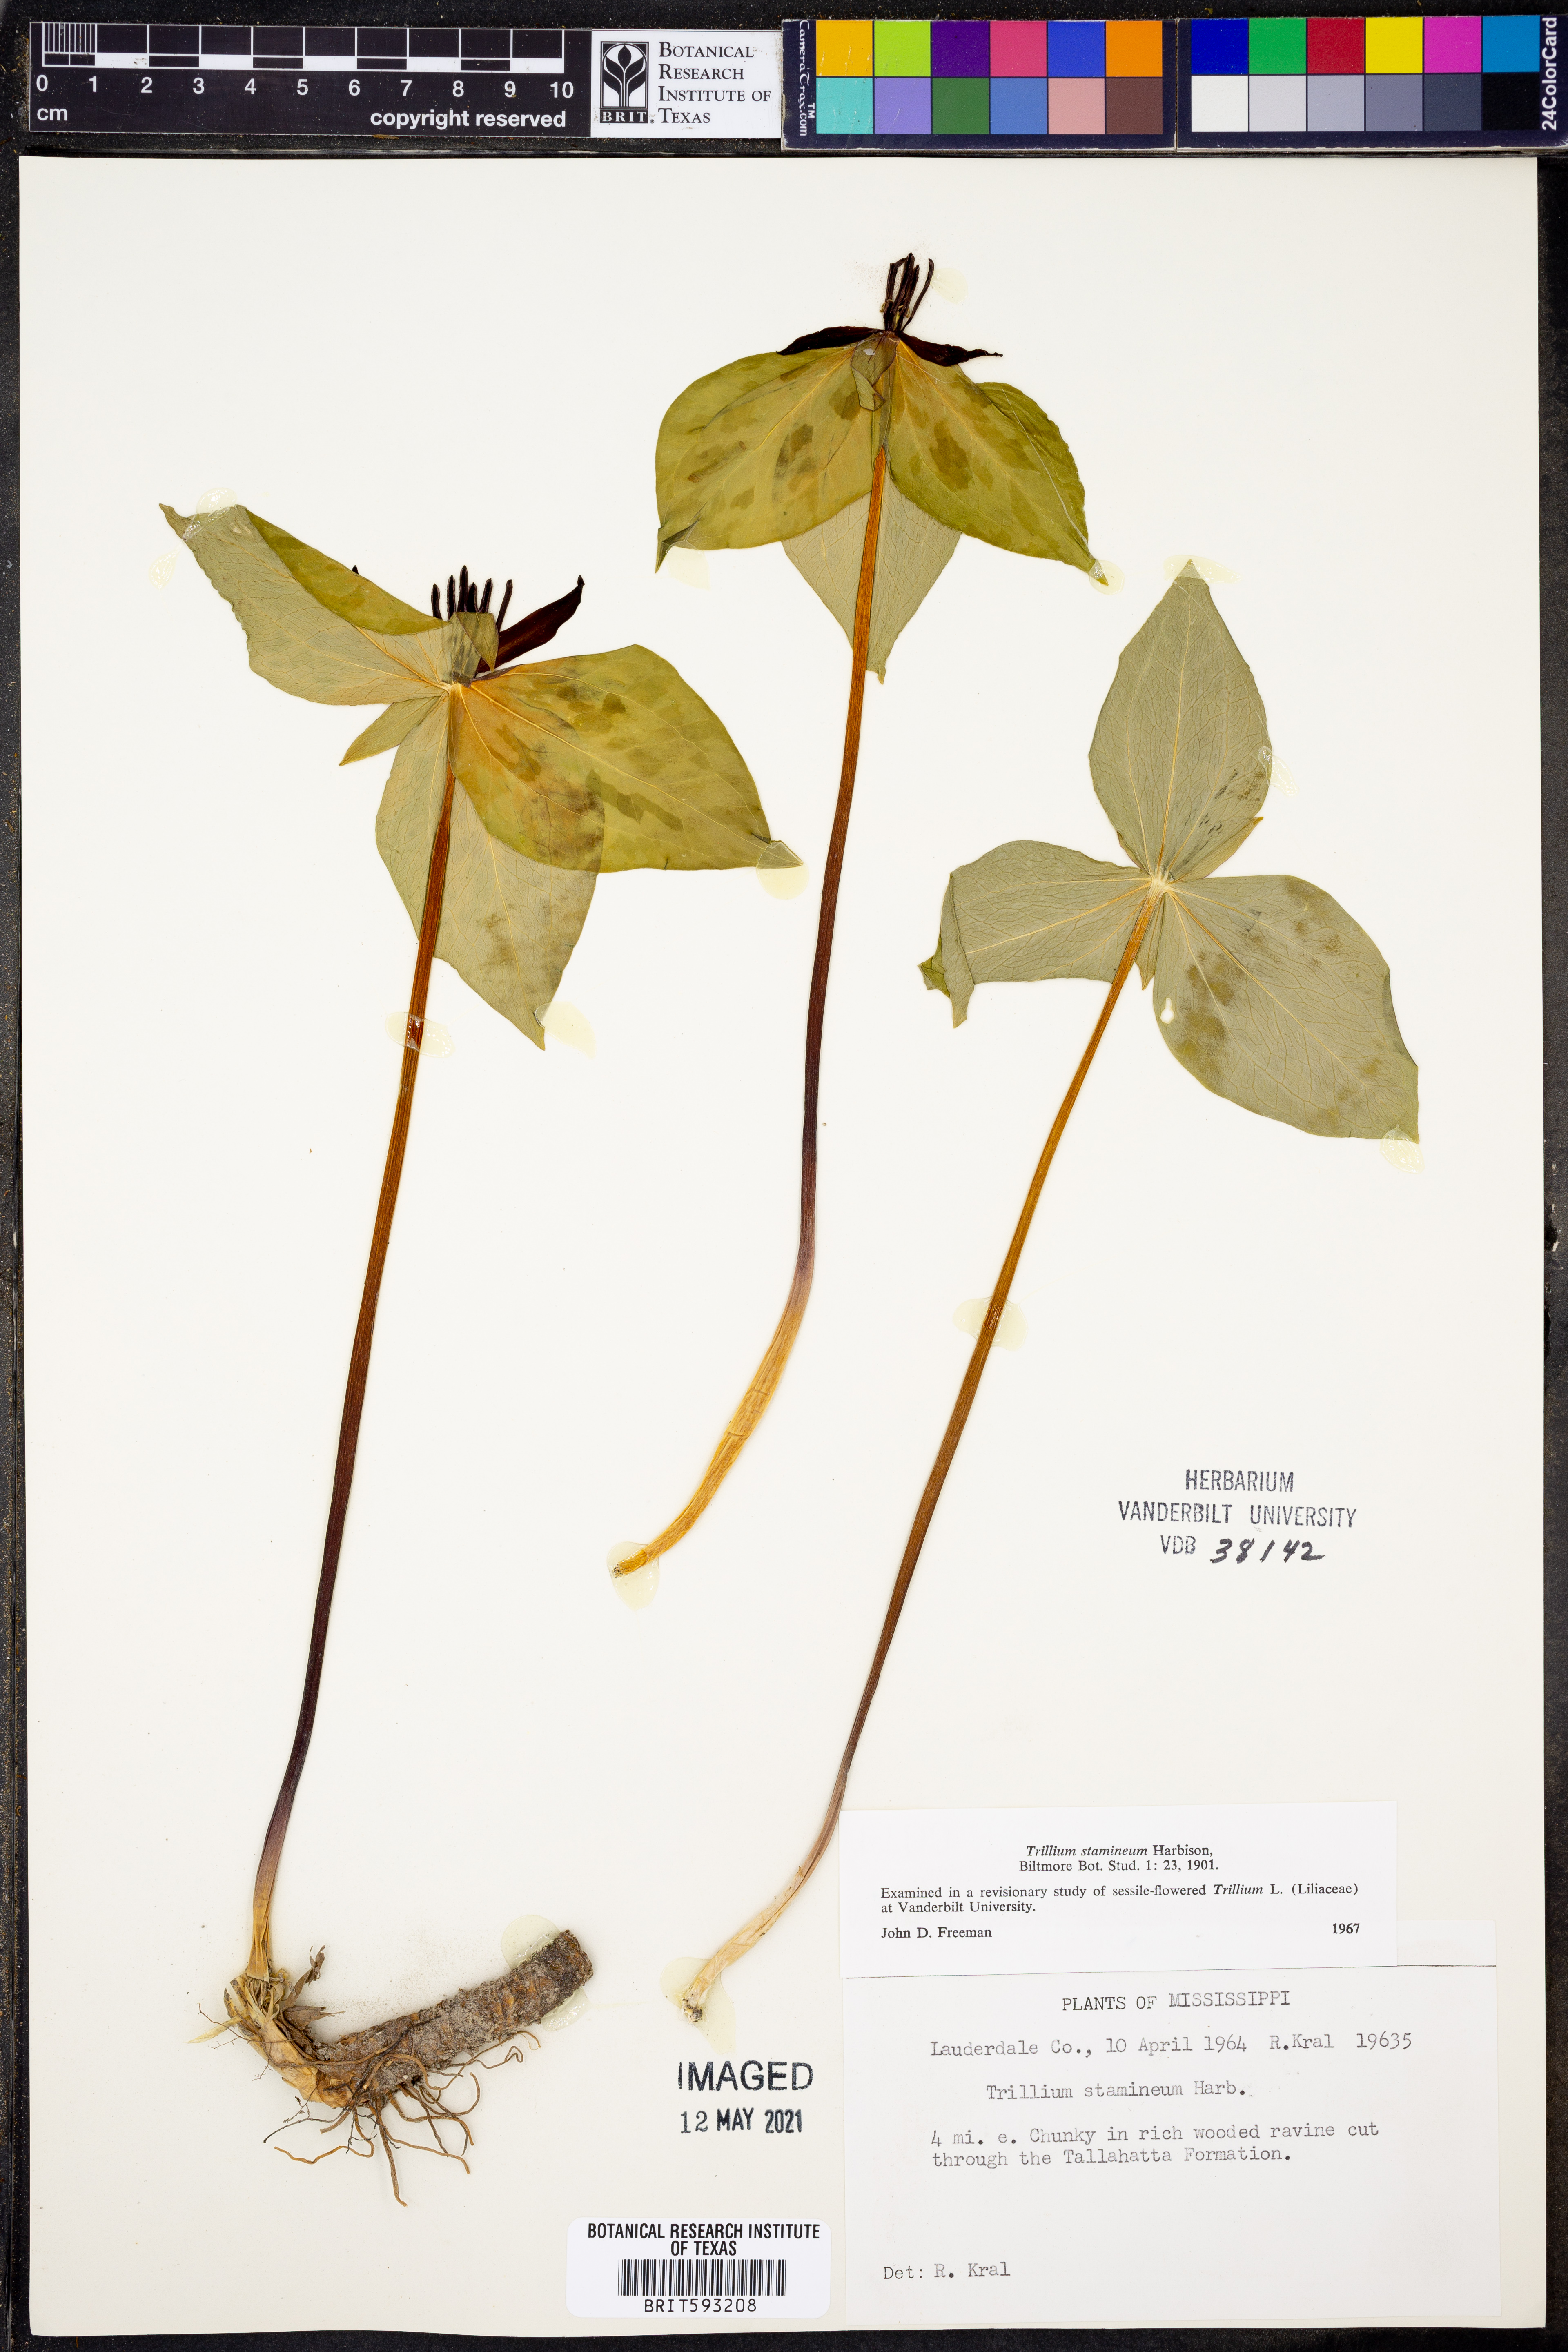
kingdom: Plantae
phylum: Tracheophyta
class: Liliopsida
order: Liliales
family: Melanthiaceae
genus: Trillium
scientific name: Trillium stamineum
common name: Blue ridge wakerobin
